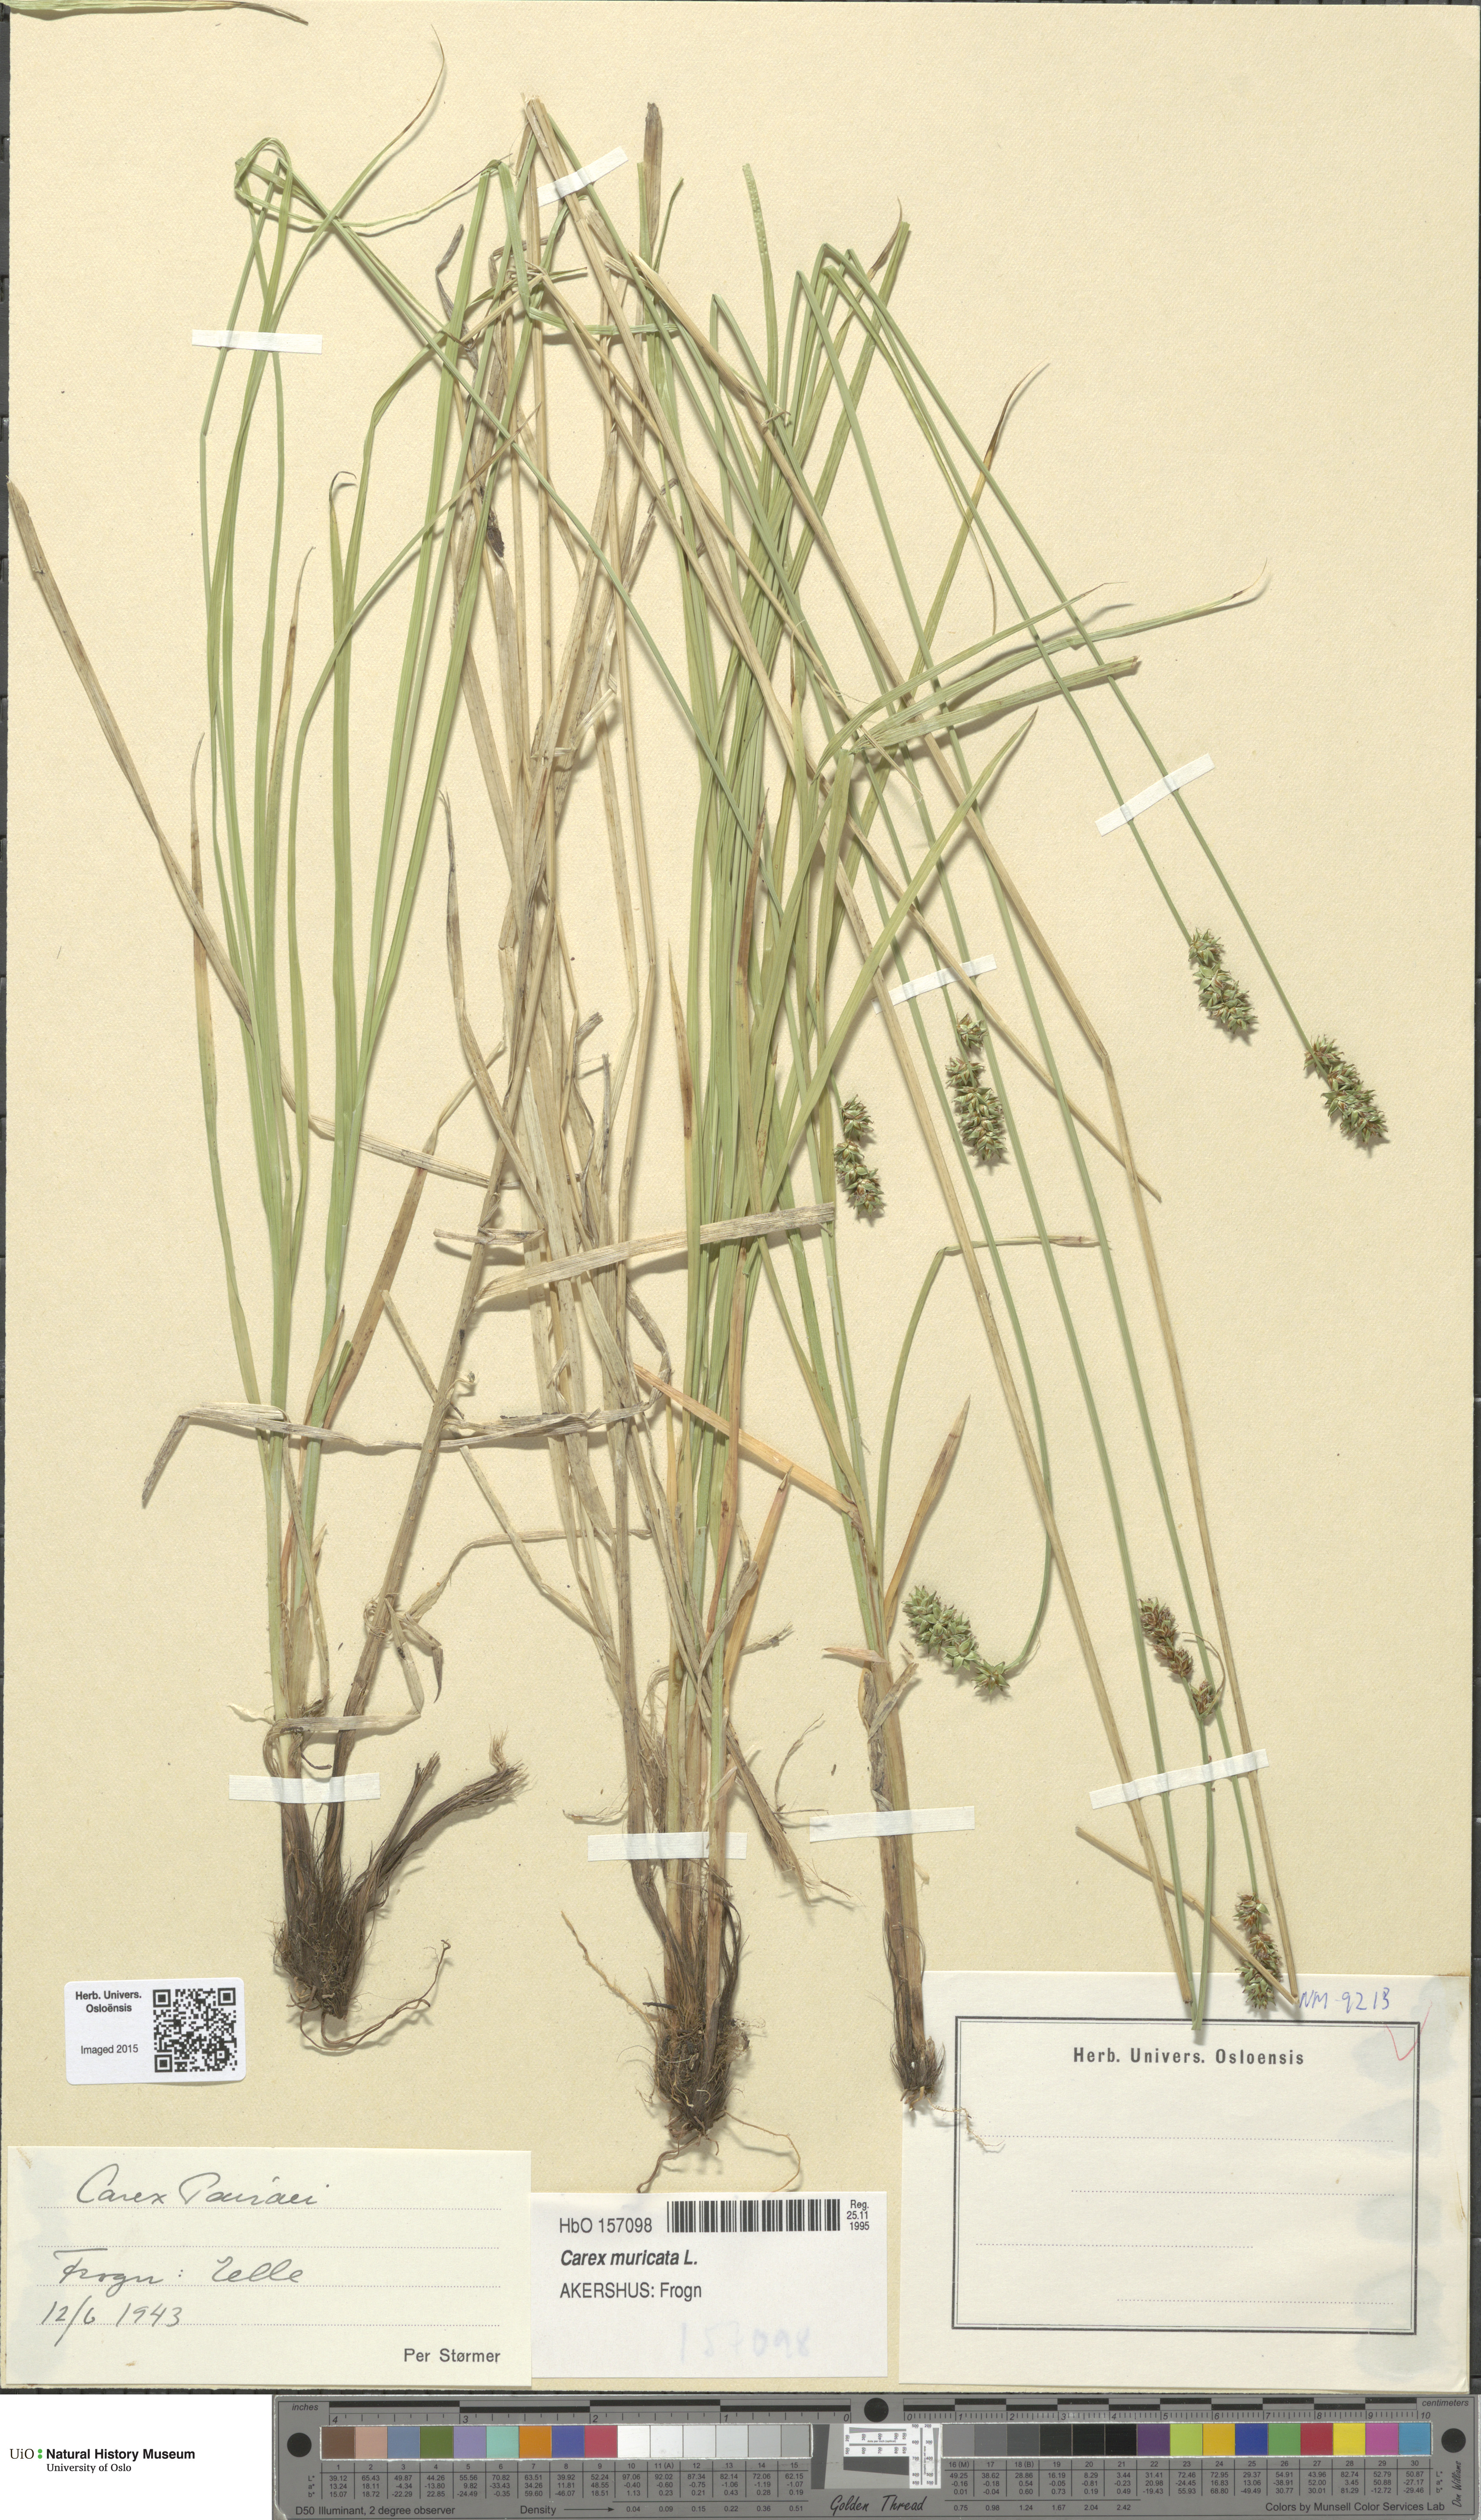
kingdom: Plantae
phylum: Tracheophyta
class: Liliopsida
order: Poales
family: Cyperaceae
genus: Carex
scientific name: Carex pairae
